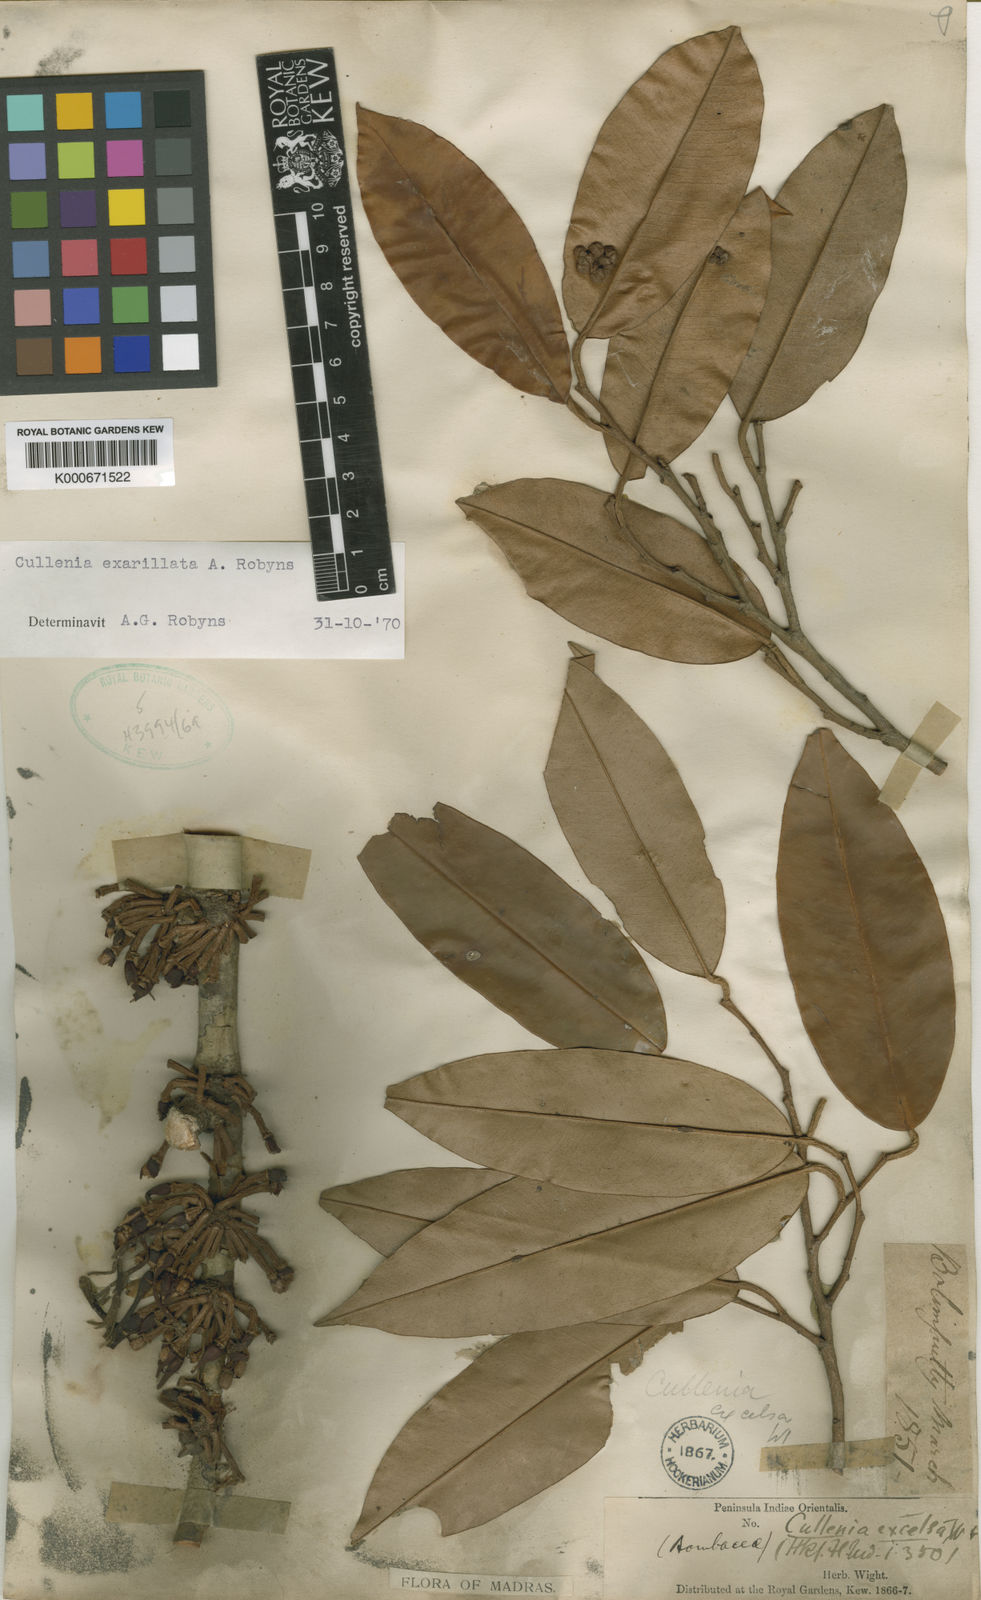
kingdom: Plantae
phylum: Tracheophyta
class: Magnoliopsida
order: Malvales
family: Malvaceae
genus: Durio
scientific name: Durio
